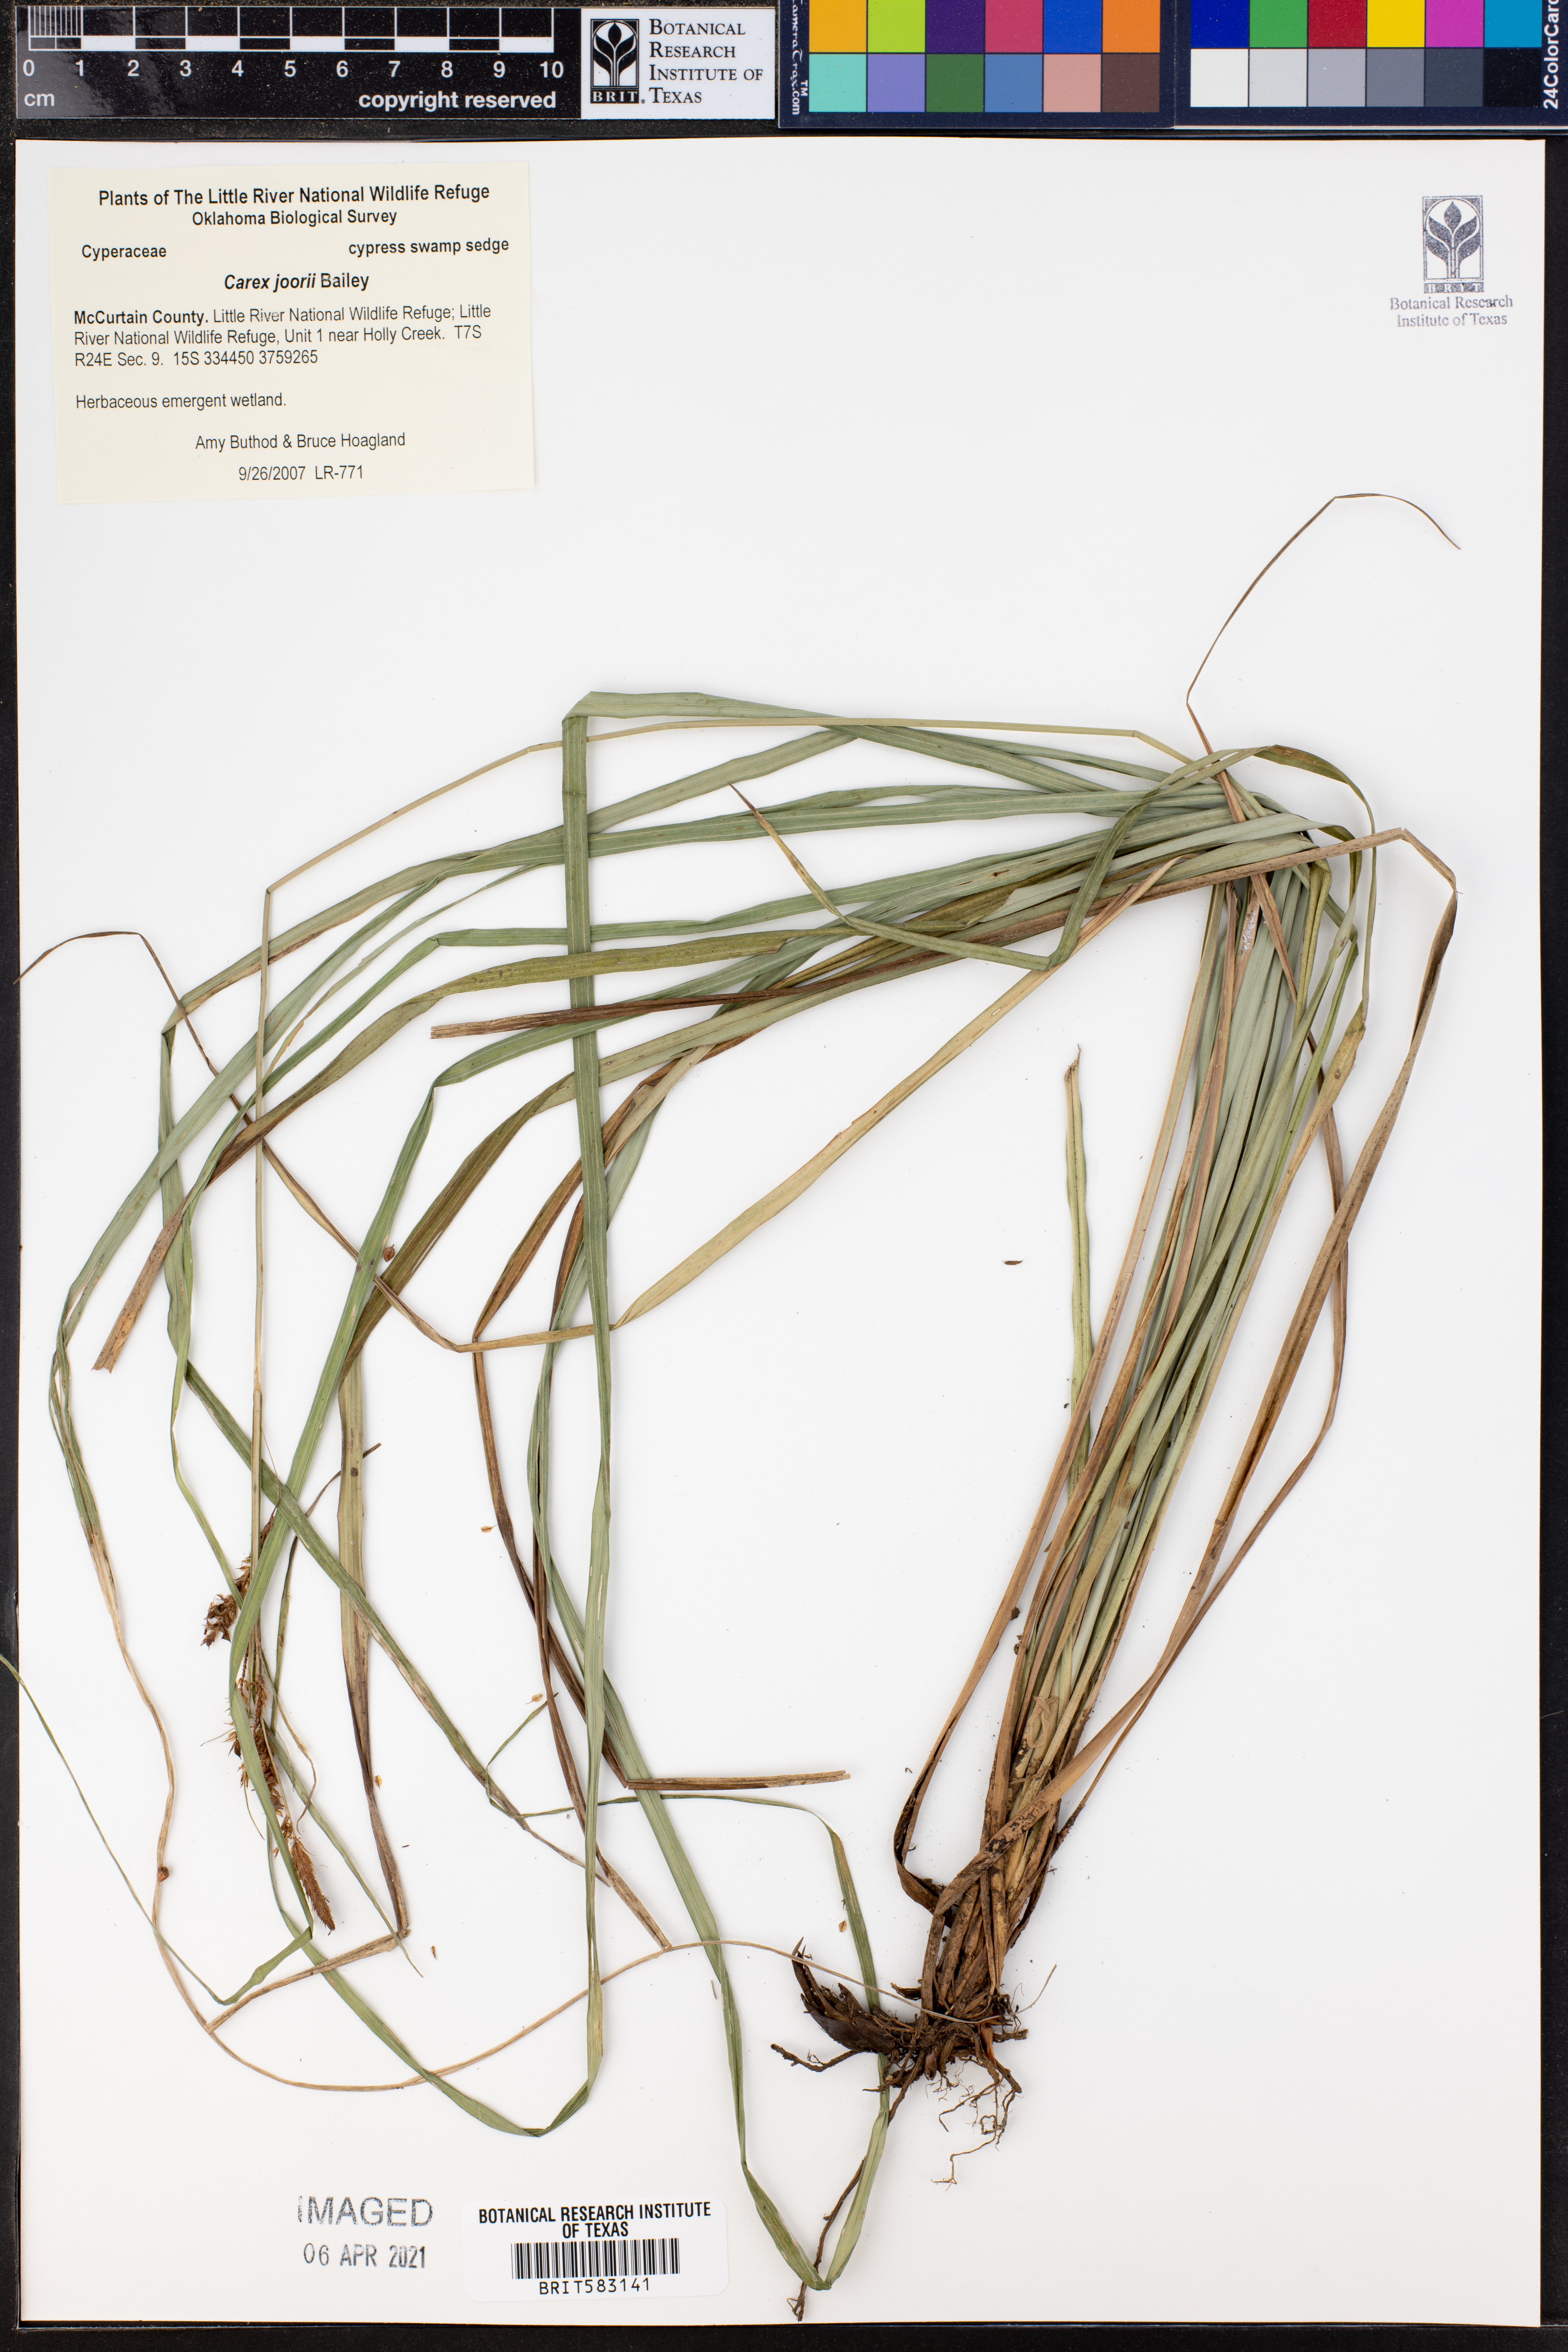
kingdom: Plantae
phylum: Tracheophyta
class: Liliopsida
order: Poales
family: Cyperaceae
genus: Carex
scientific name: Carex joorii
